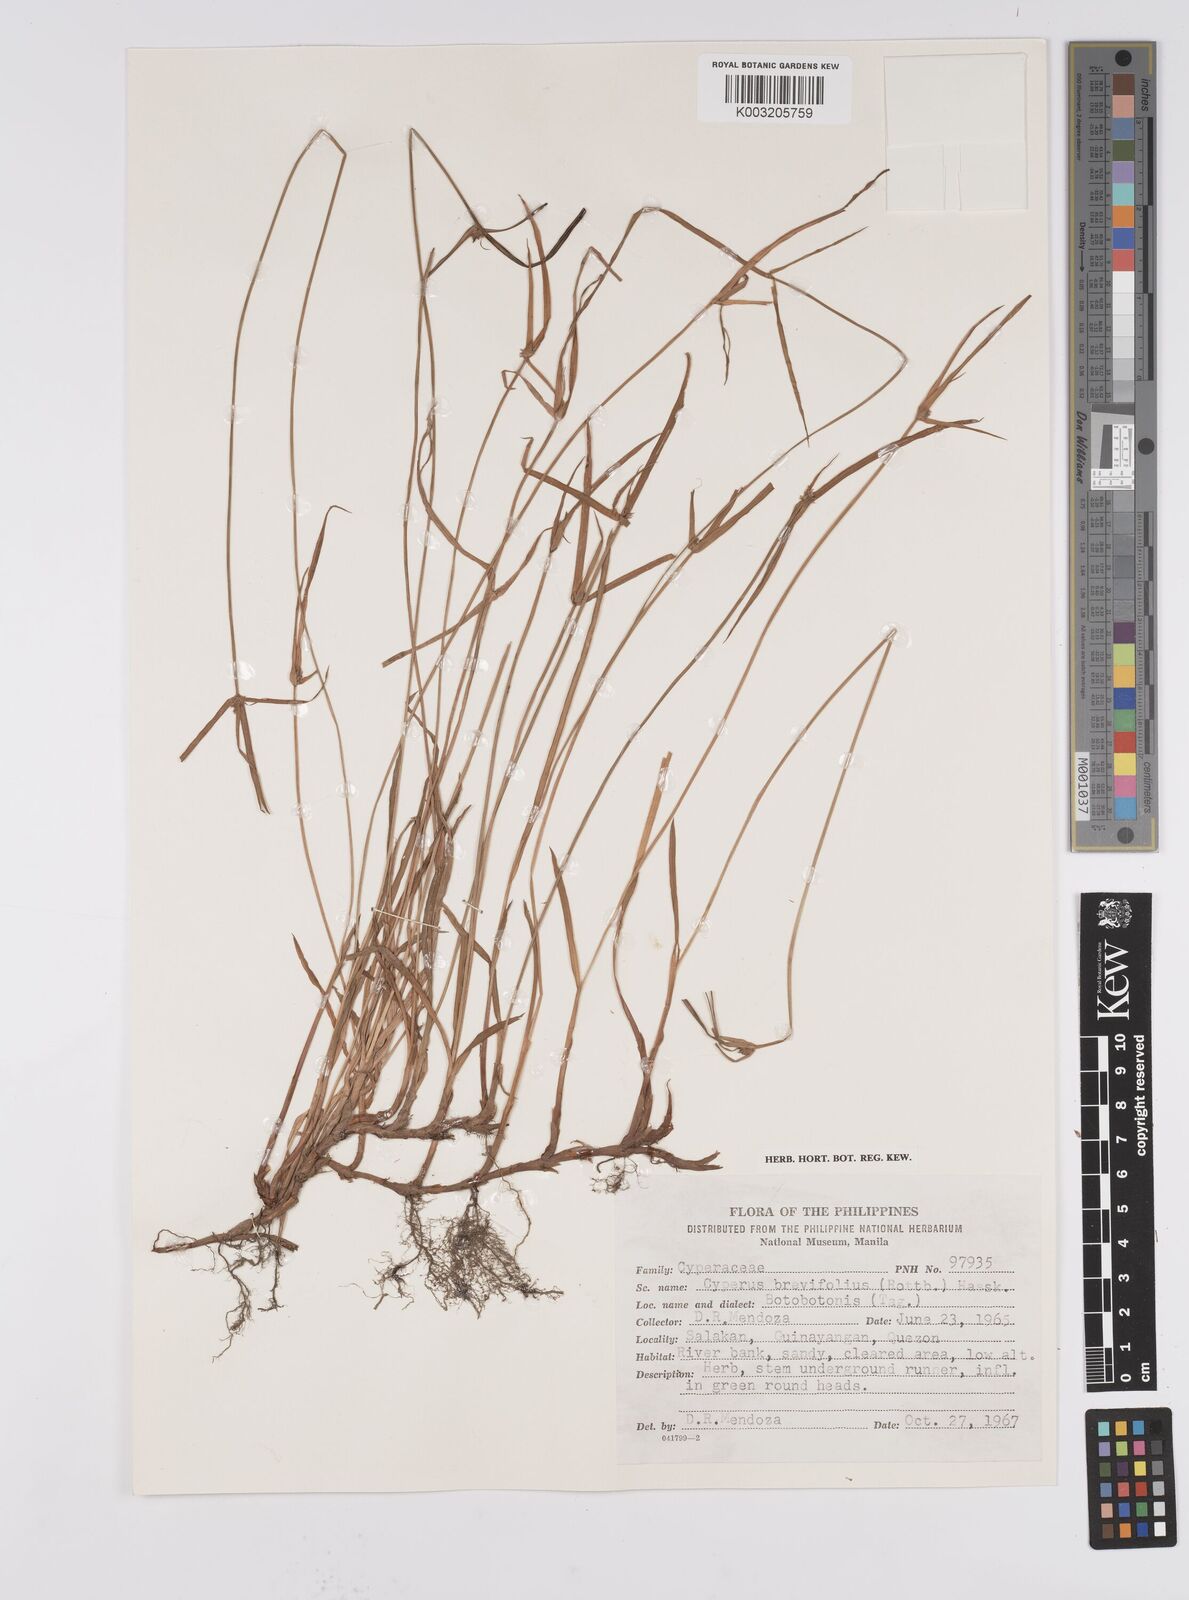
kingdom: Plantae
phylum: Tracheophyta
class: Liliopsida
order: Poales
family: Cyperaceae
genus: Cyperus
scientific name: Cyperus brevifolius
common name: Globe kyllinga
